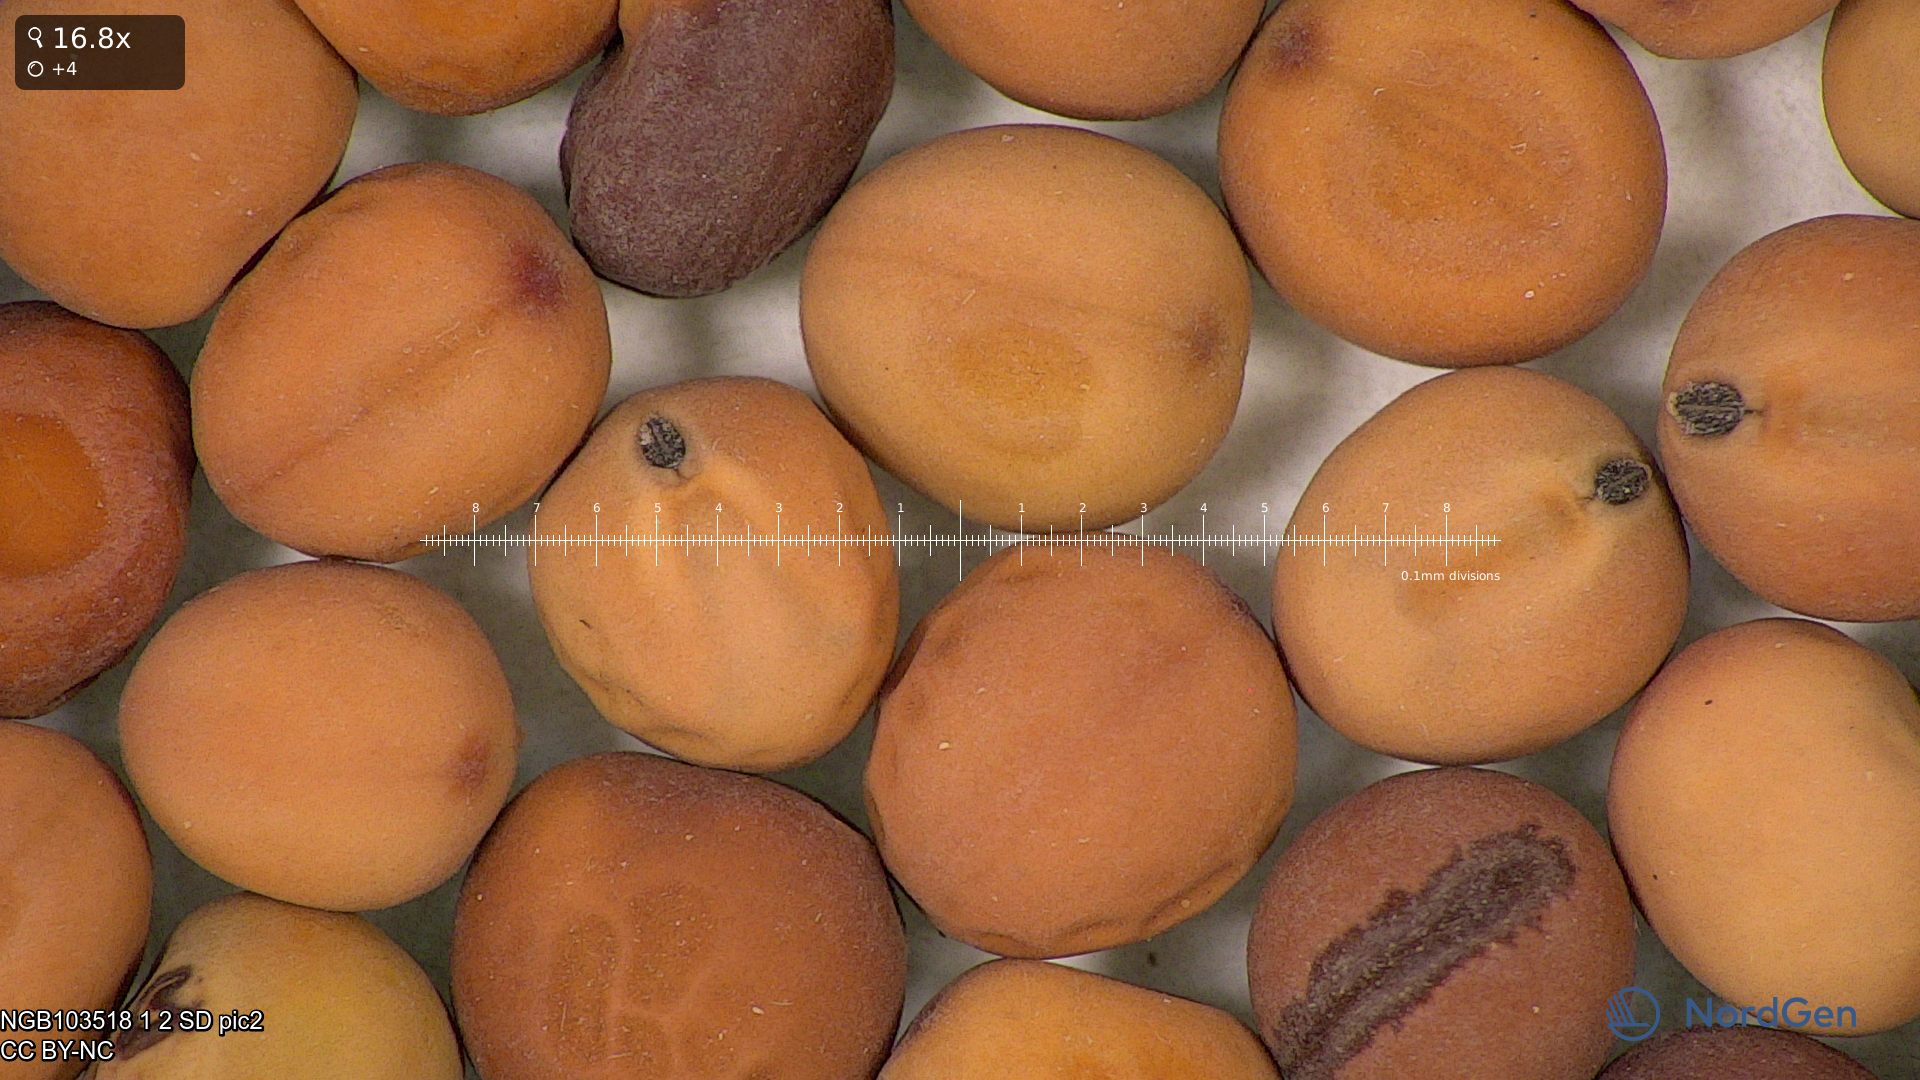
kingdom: Plantae
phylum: Tracheophyta
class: Magnoliopsida
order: Fabales
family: Fabaceae
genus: Lathyrus
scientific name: Lathyrus oleraceus
